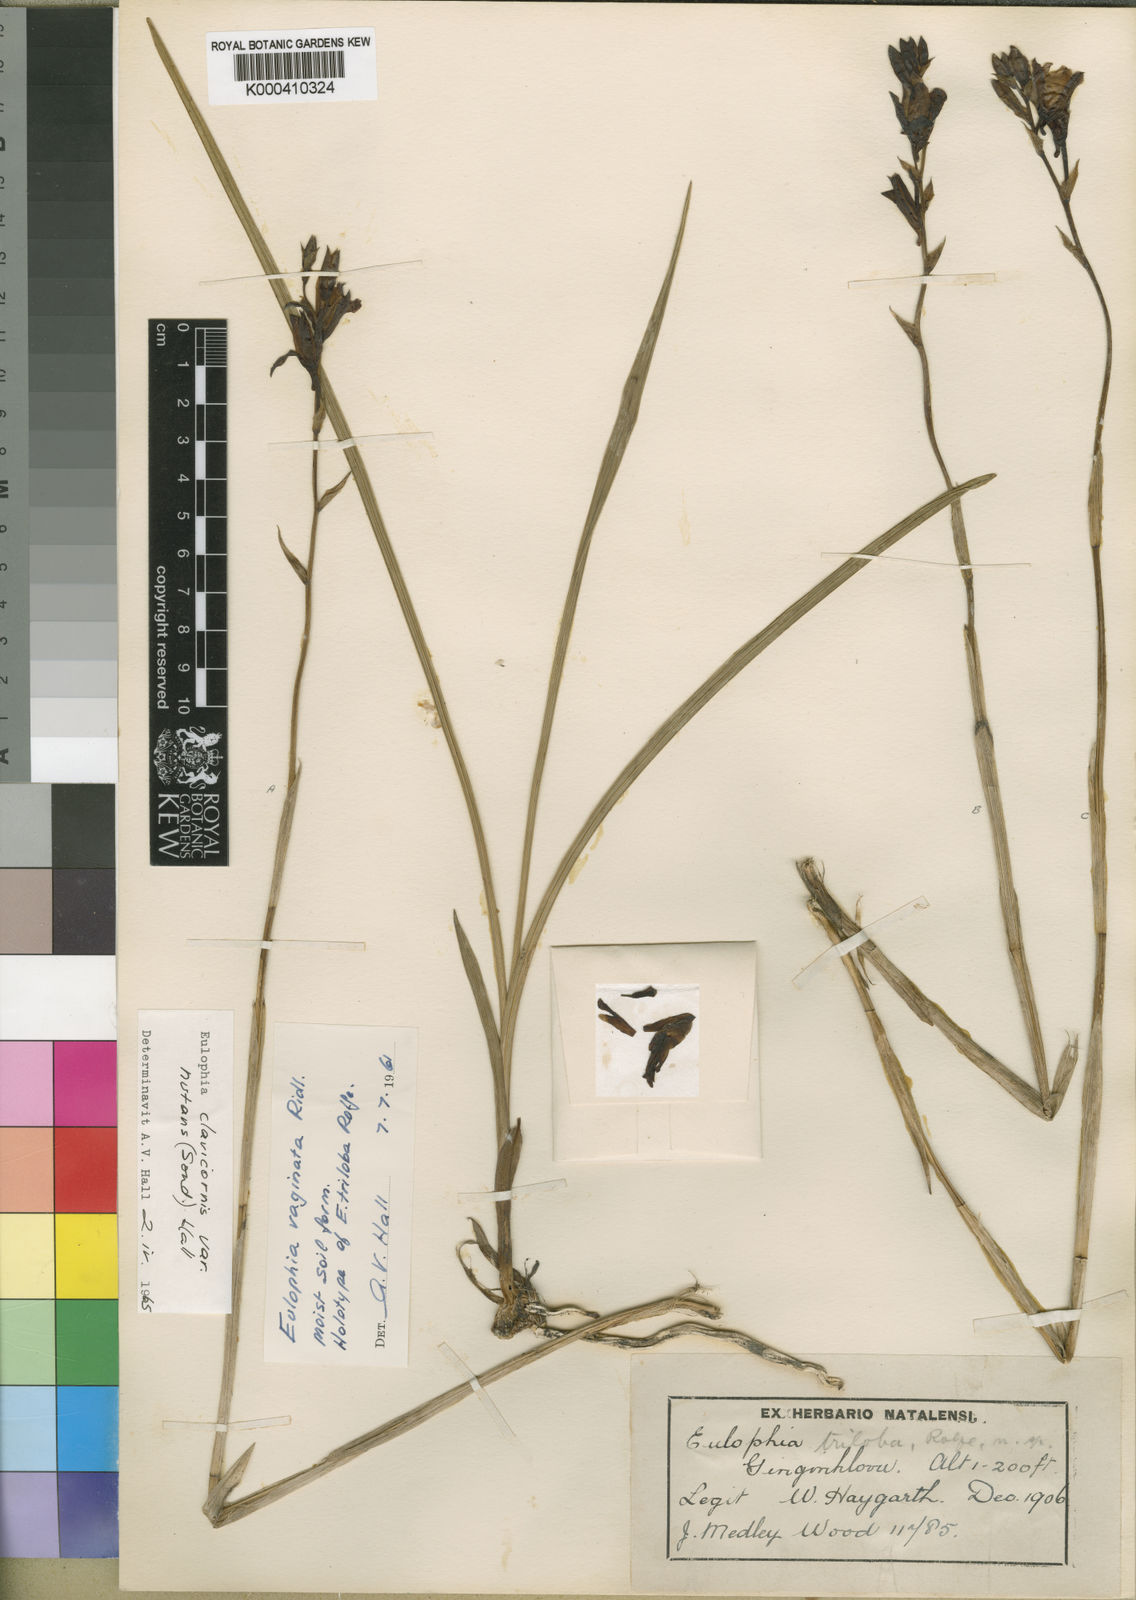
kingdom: Plantae
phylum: Tracheophyta
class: Liliopsida
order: Asparagales
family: Orchidaceae
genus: Eulophia
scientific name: Eulophia hians
